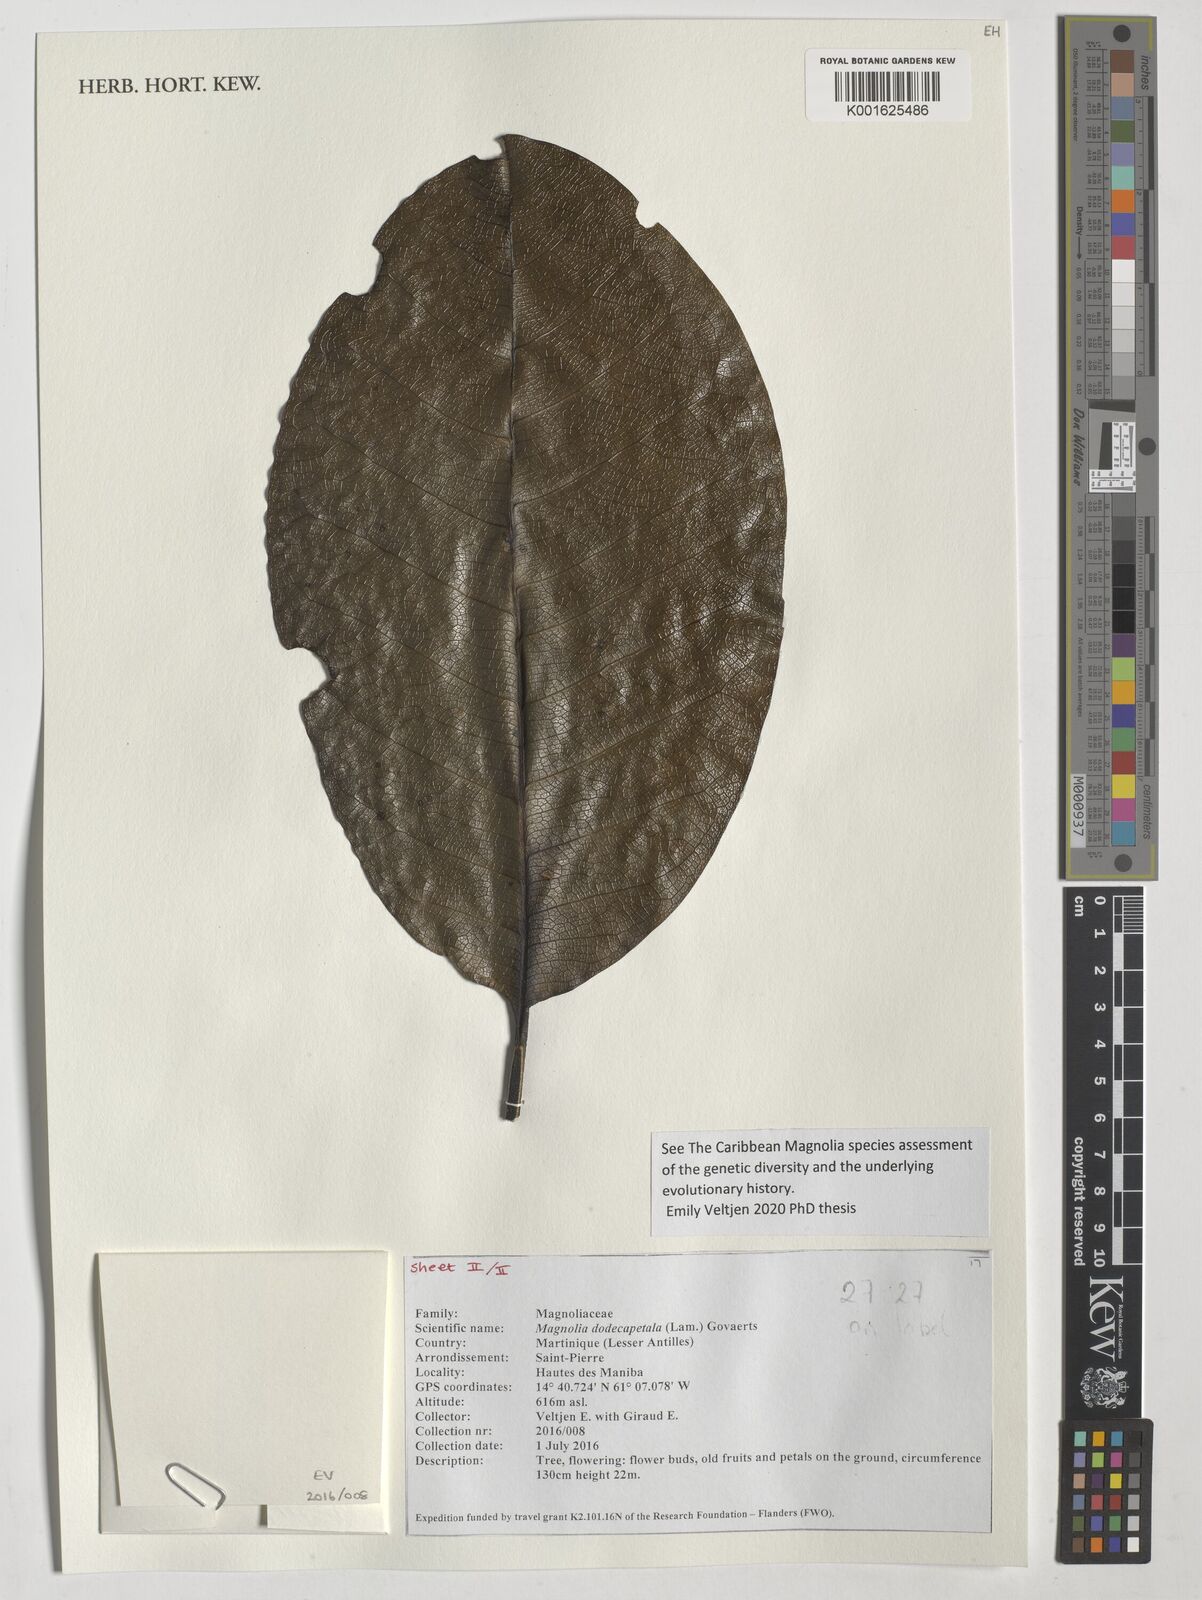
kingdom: Plantae
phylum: Tracheophyta
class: Magnoliopsida
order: Magnoliales
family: Magnoliaceae
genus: Magnolia
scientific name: Magnolia dodecapetala
